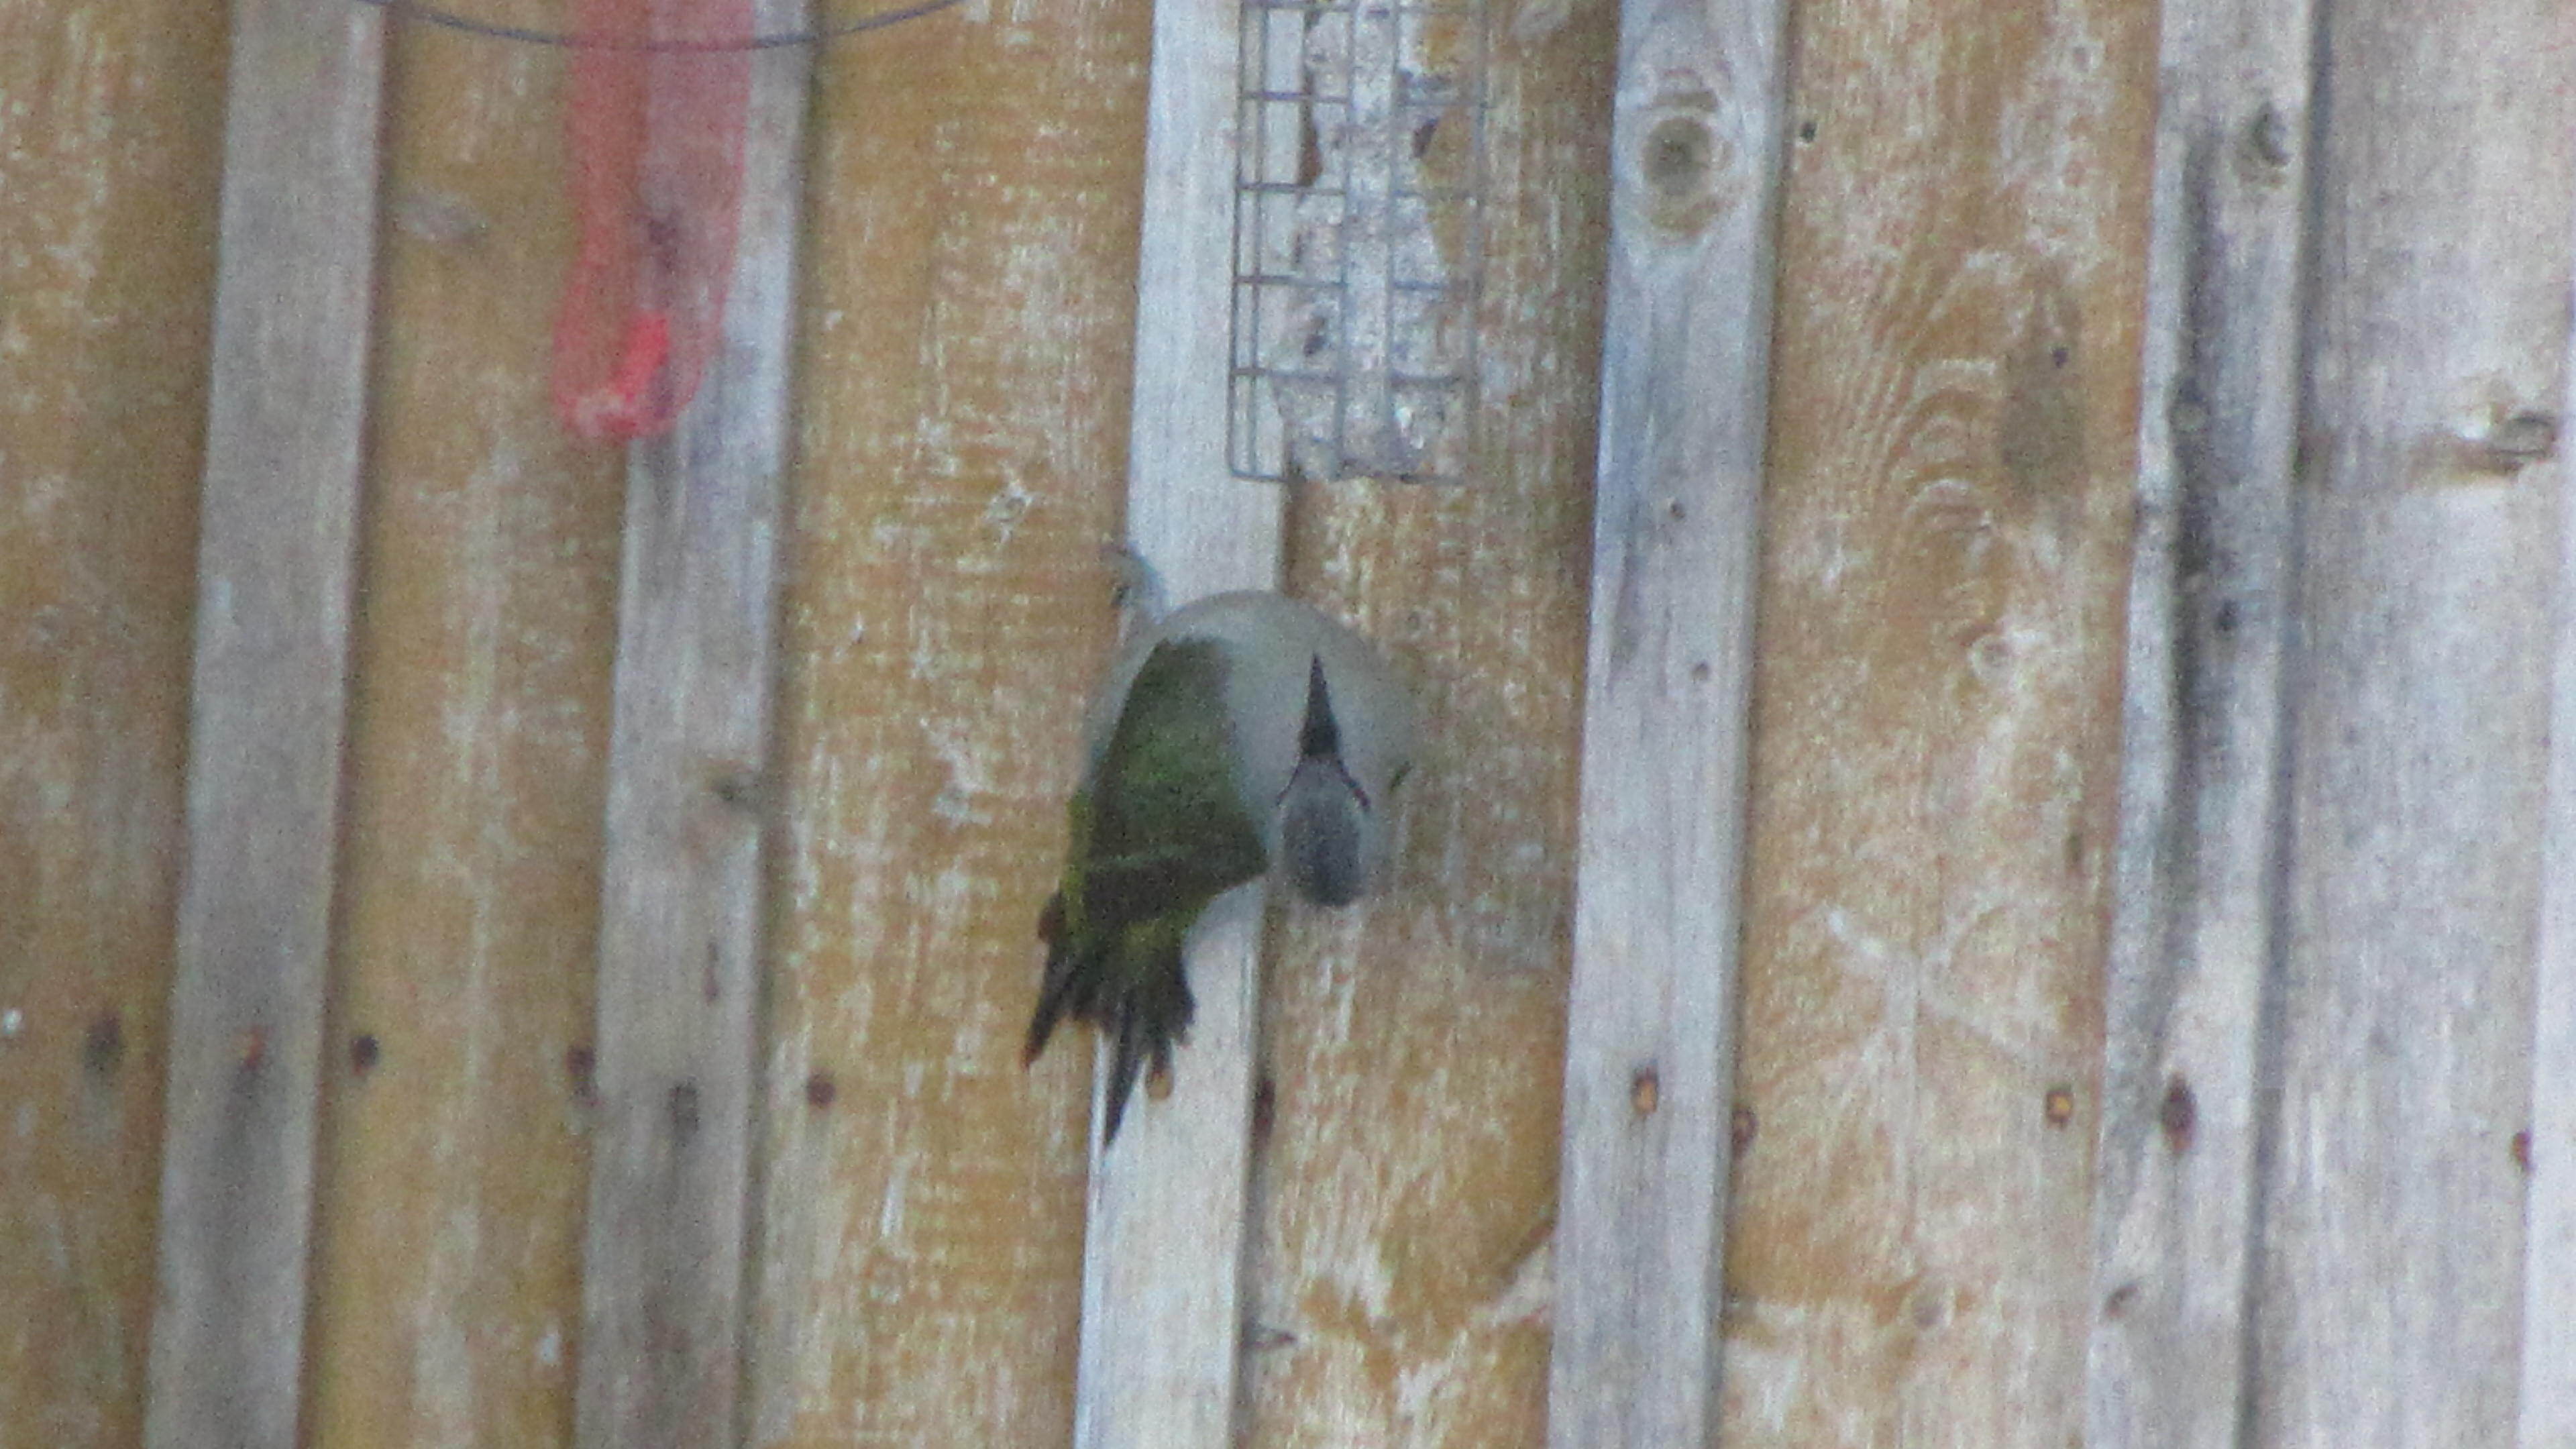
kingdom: Animalia
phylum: Chordata
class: Aves
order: Piciformes
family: Picidae
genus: Picus
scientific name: Picus canus
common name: Grey-headed woodpecker
